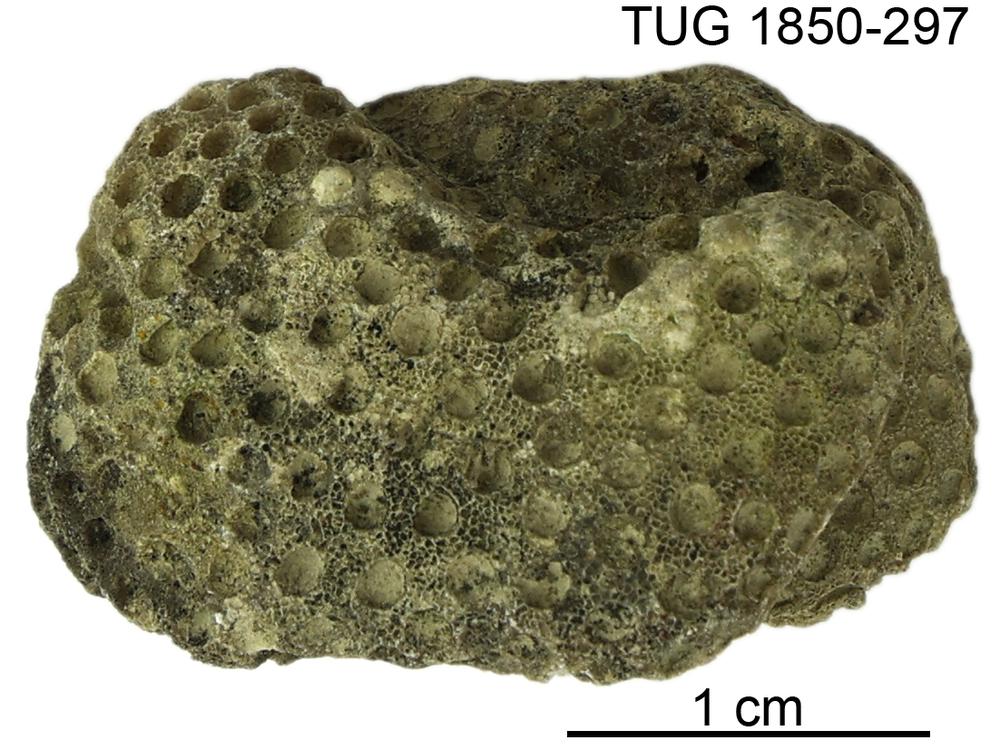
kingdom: Animalia
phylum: Cnidaria
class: Anthozoa
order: Heliolitina
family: Heliolitidae
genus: Heliolites
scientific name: Heliolites
